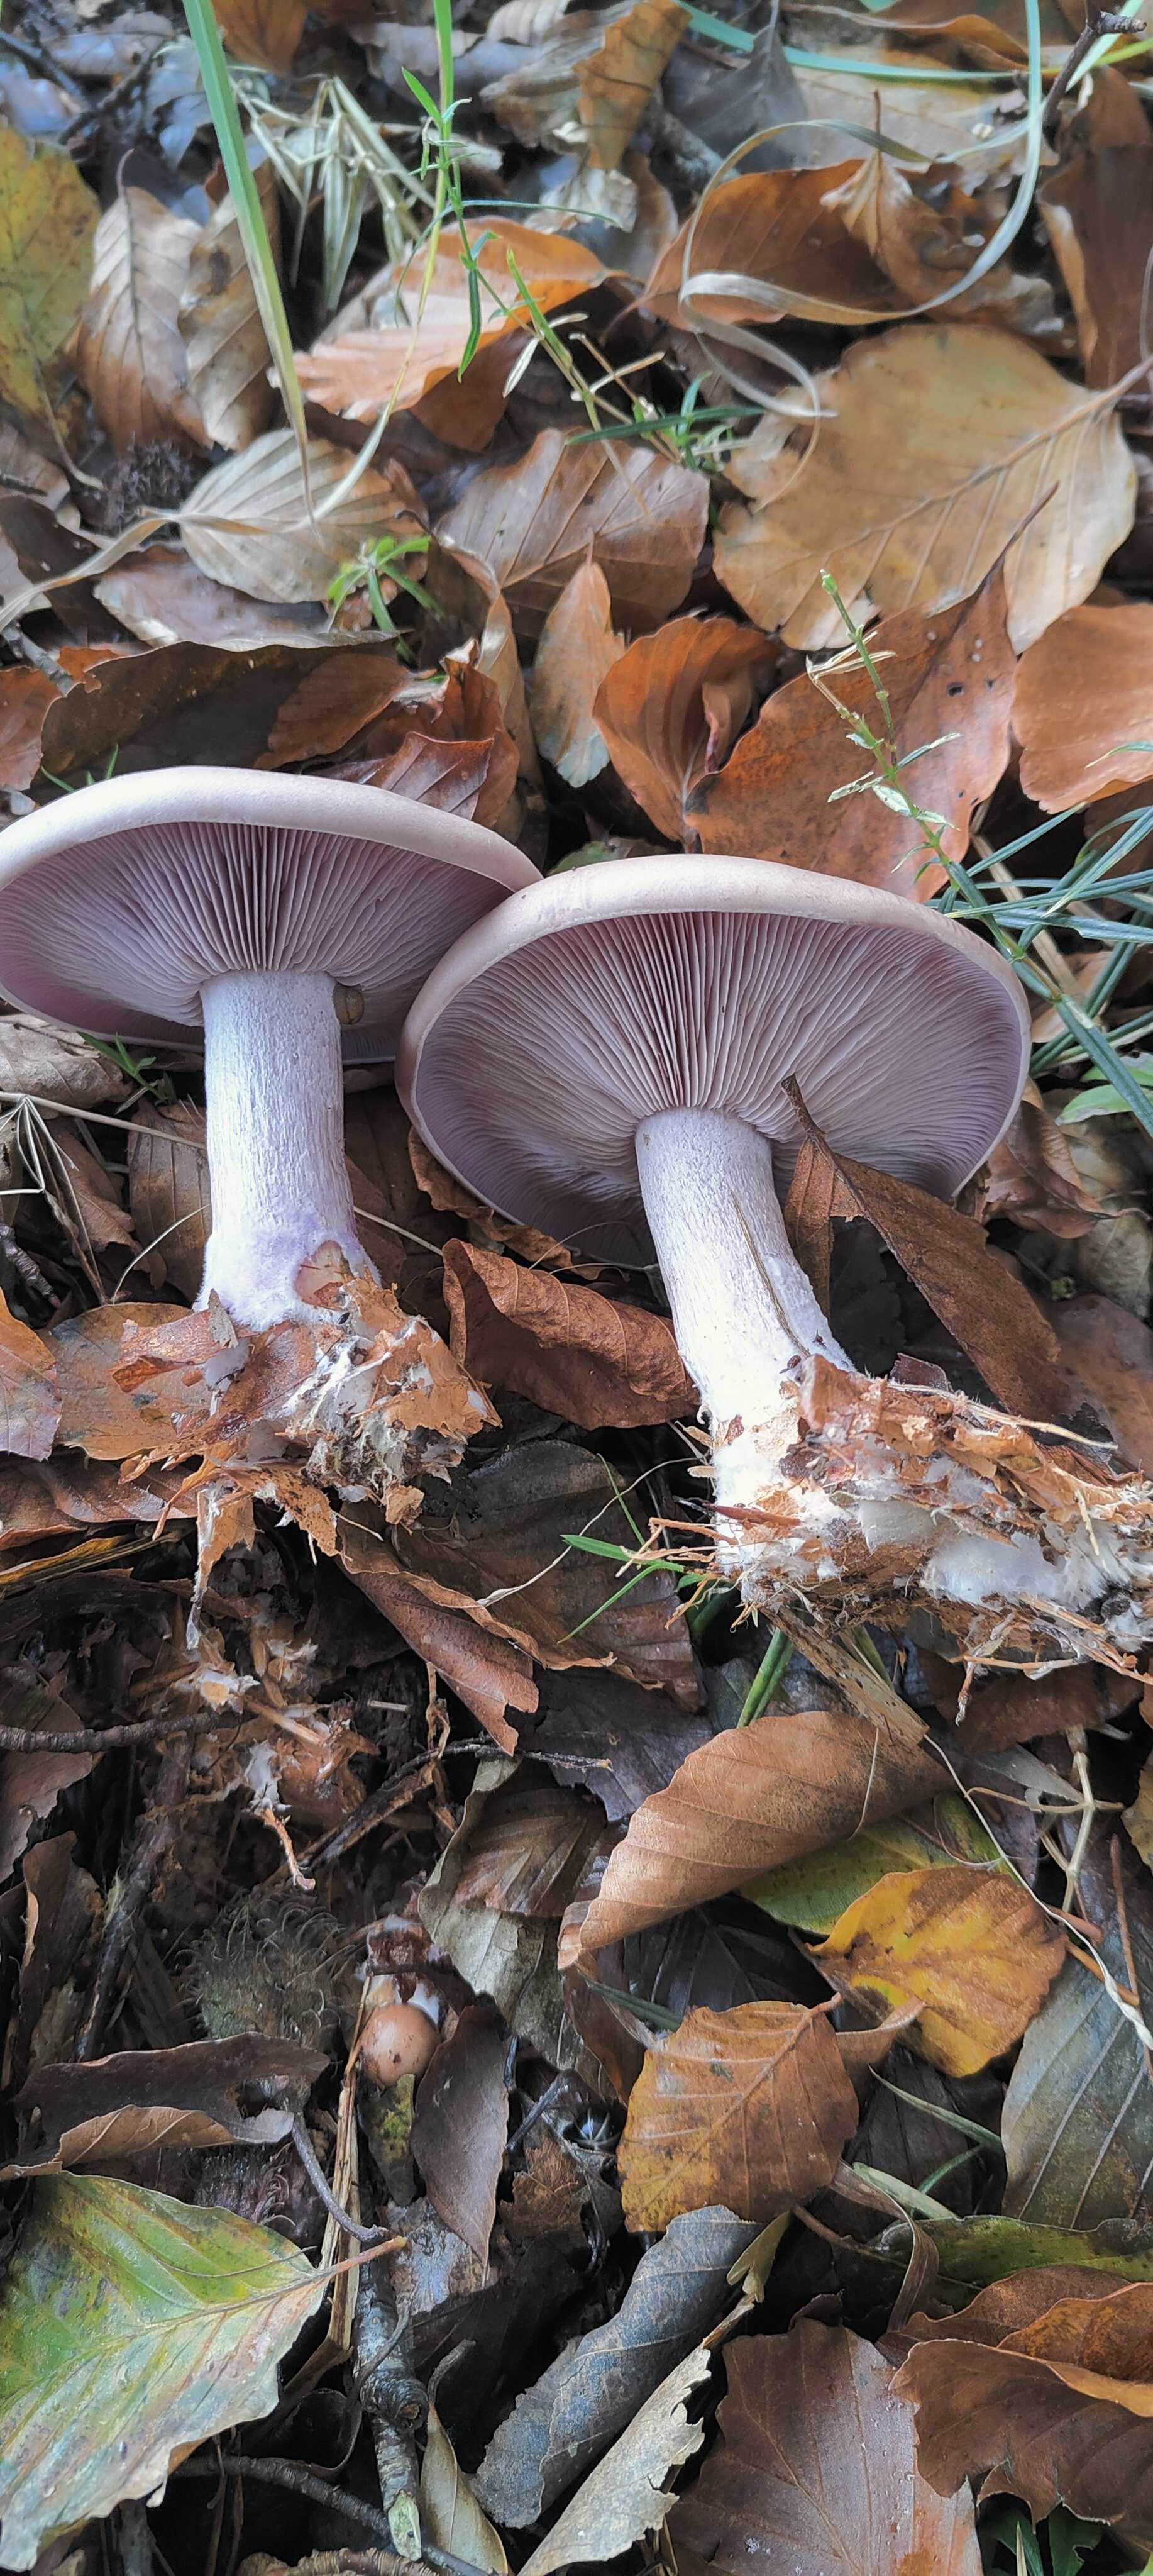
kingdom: Fungi
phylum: Basidiomycota
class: Agaricomycetes
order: Agaricales
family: Tricholomataceae
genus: Lepista
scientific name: Lepista nuda
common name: violet hekseringshat
